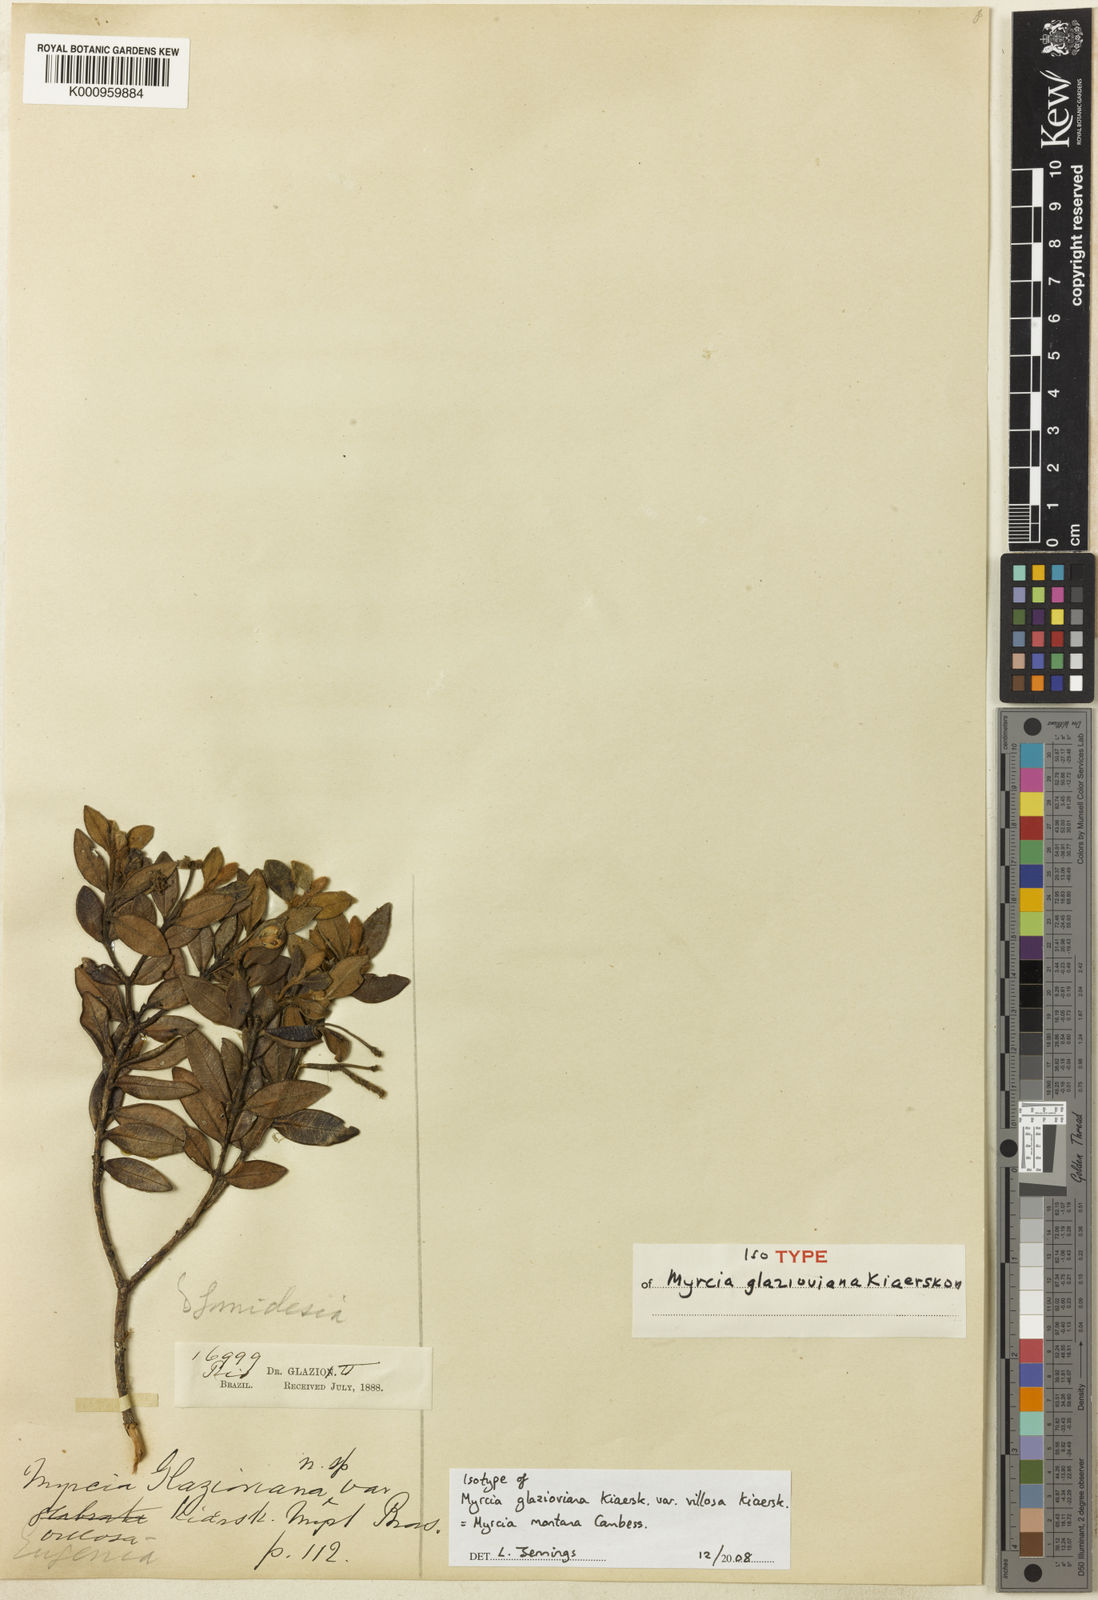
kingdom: Plantae
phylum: Tracheophyta
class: Magnoliopsida
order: Myrtales
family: Myrtaceae
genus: Myrcia
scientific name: Myrcia montana
